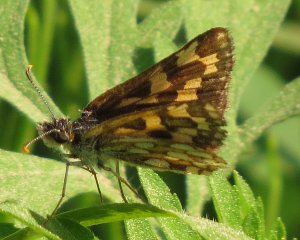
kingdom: Animalia
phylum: Arthropoda
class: Insecta
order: Lepidoptera
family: Hesperiidae
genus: Carterocephalus
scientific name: Carterocephalus palaemon
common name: Chequered Skipper
